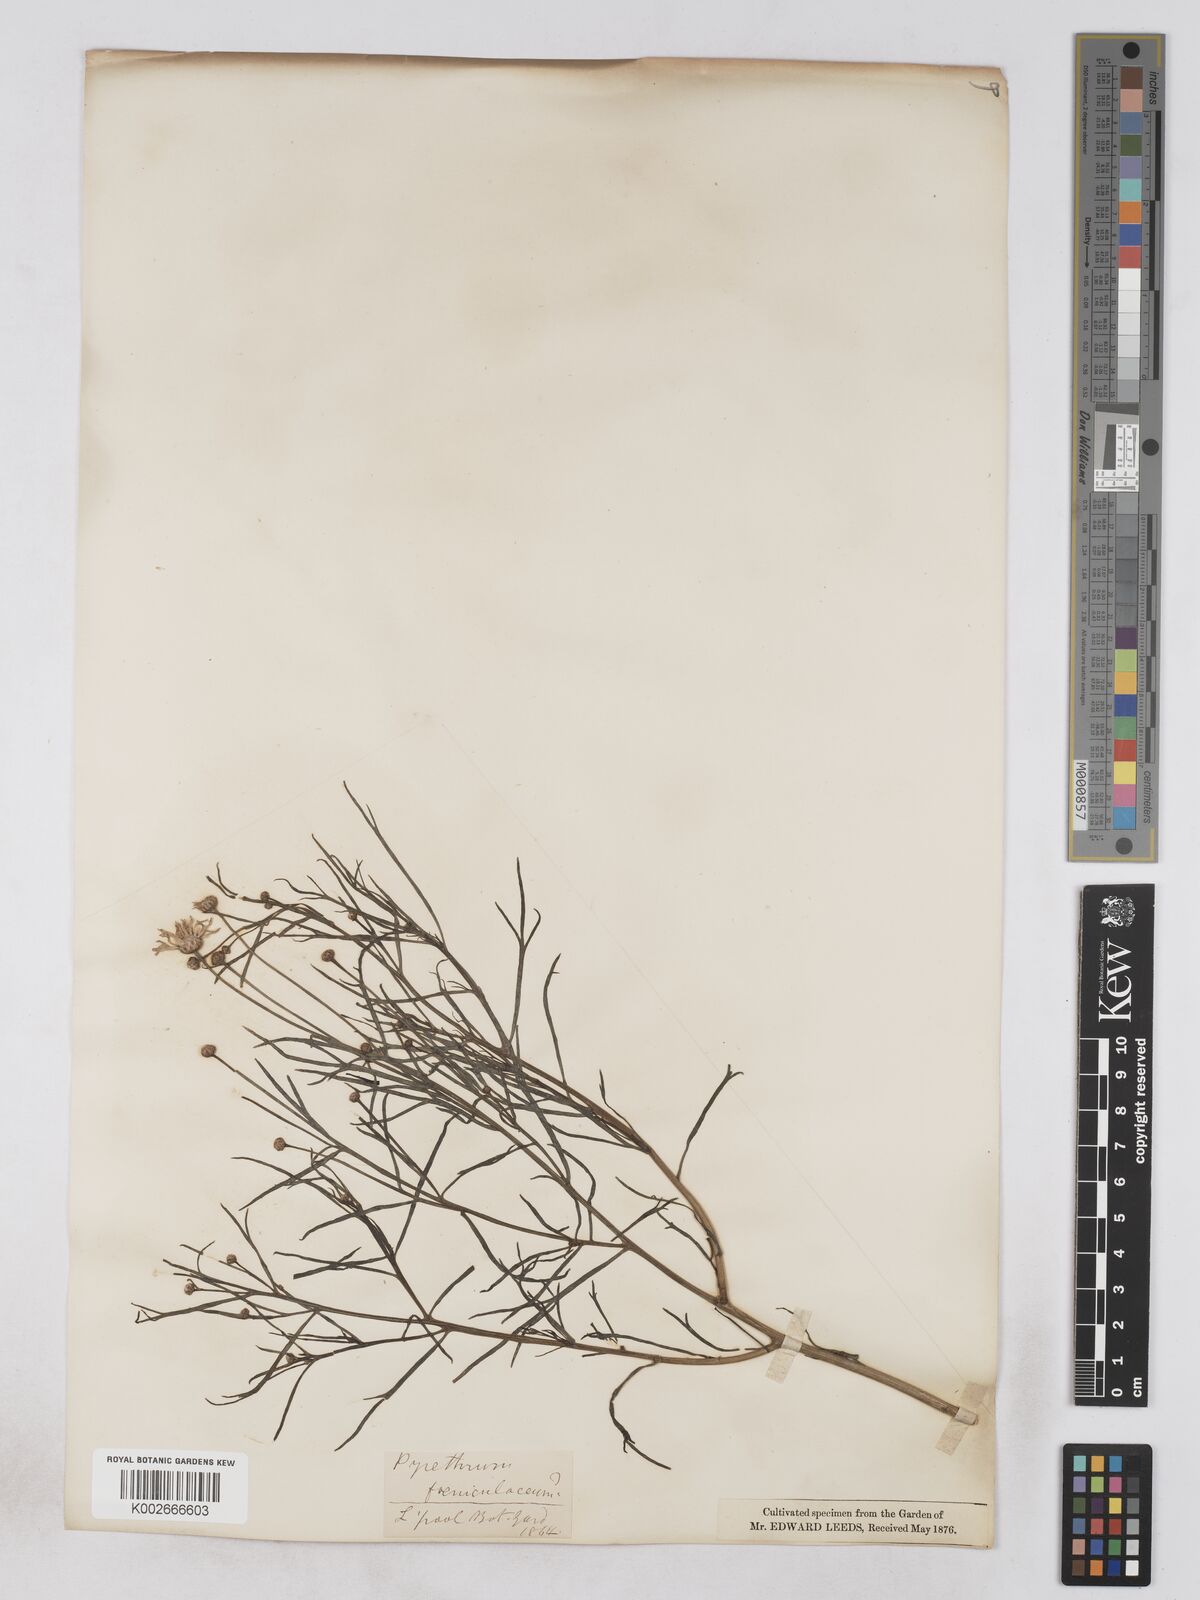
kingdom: Plantae
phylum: Tracheophyta
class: Magnoliopsida
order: Asterales
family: Asteraceae
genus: Argyranthemum
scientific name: Argyranthemum gracile
